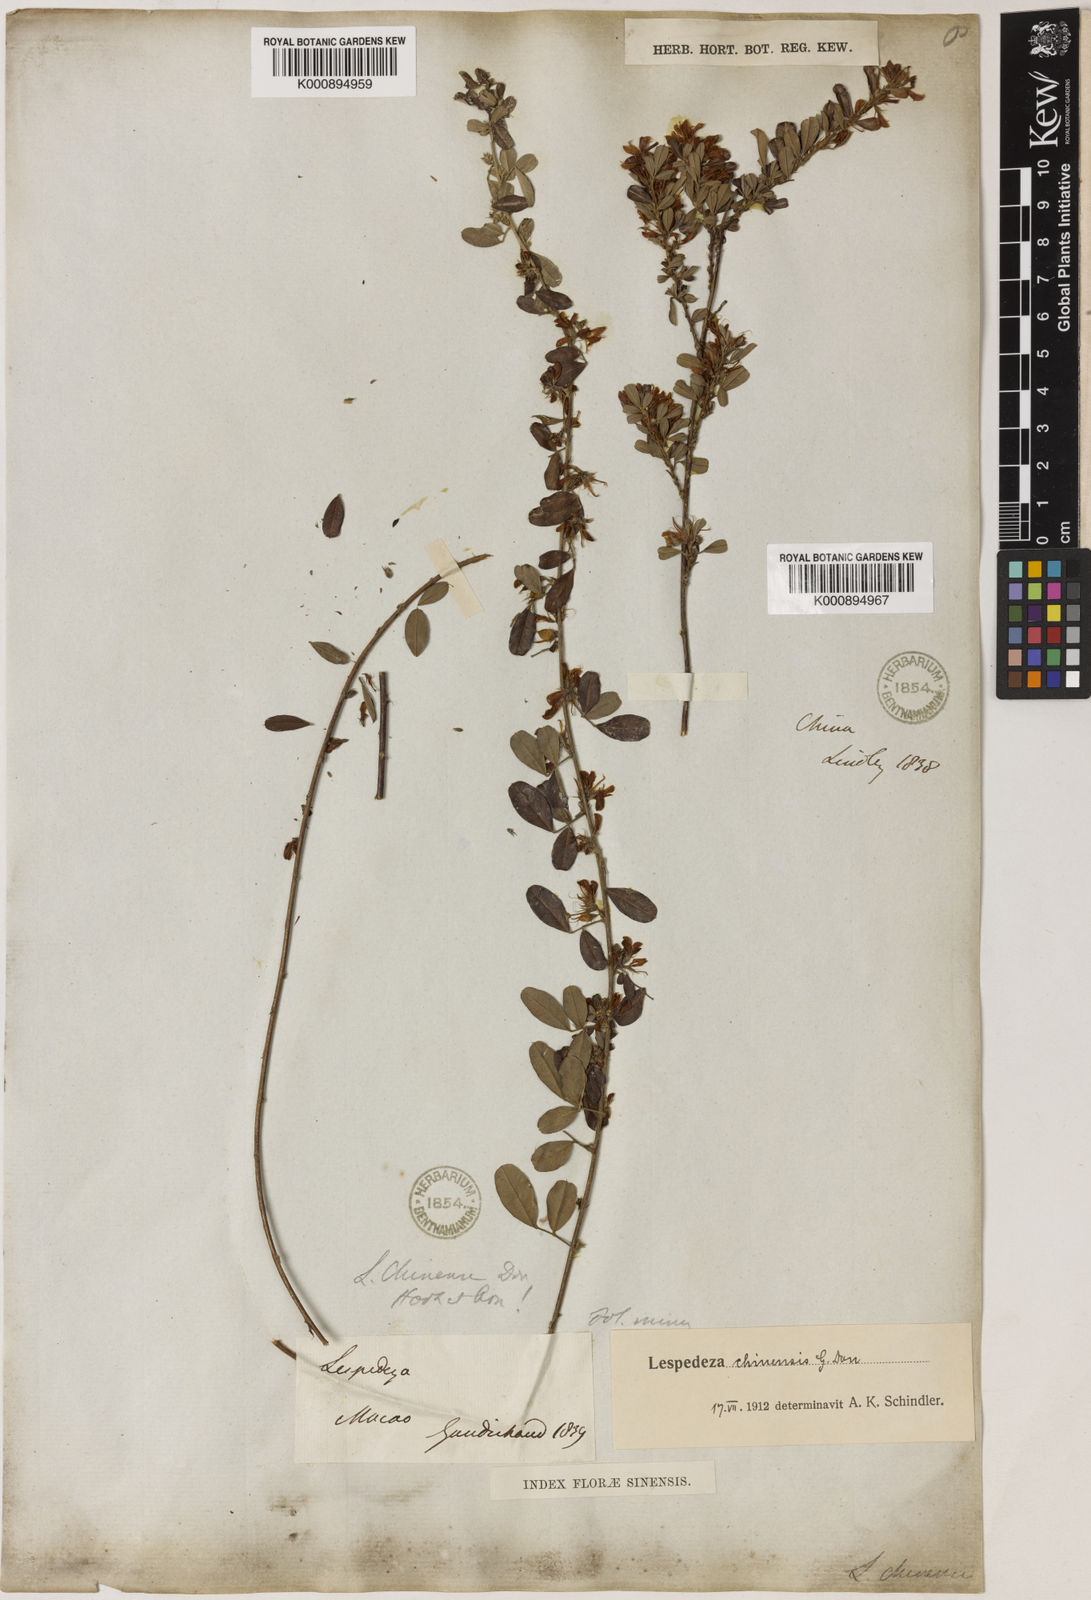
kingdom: Plantae
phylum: Tracheophyta
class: Magnoliopsida
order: Fabales
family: Fabaceae
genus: Lespedeza
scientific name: Lespedeza chinensis
